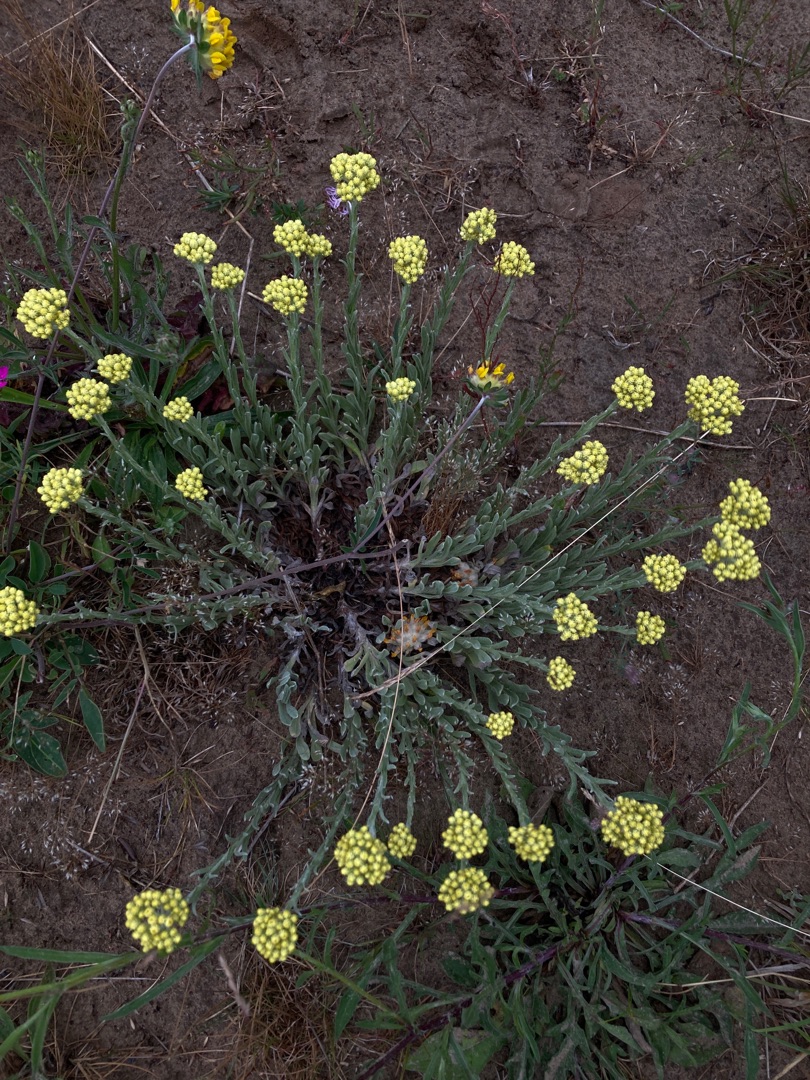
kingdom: Plantae
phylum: Tracheophyta
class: Magnoliopsida
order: Asterales
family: Asteraceae
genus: Helichrysum
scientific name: Helichrysum arenarium
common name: Gul evighedsblomst
